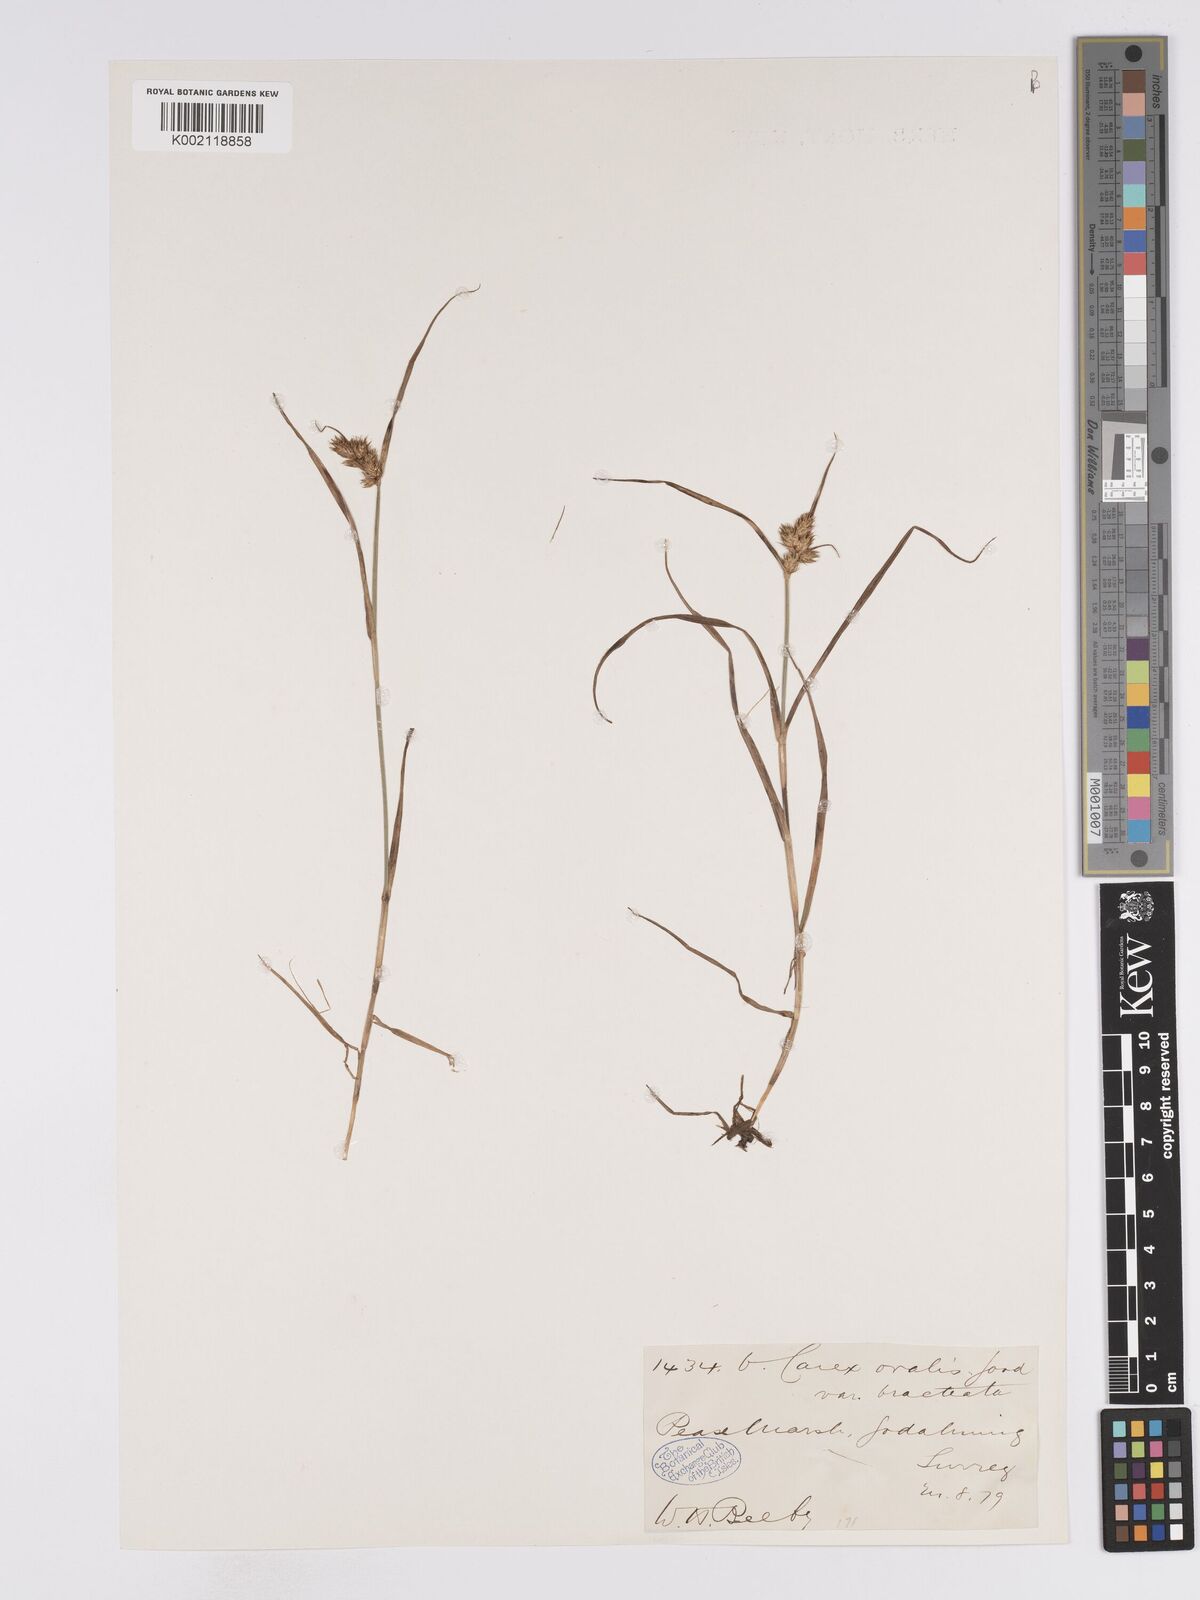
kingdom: Plantae
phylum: Tracheophyta
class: Liliopsida
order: Poales
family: Cyperaceae
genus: Carex
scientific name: Carex leporina
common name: Oval sedge
